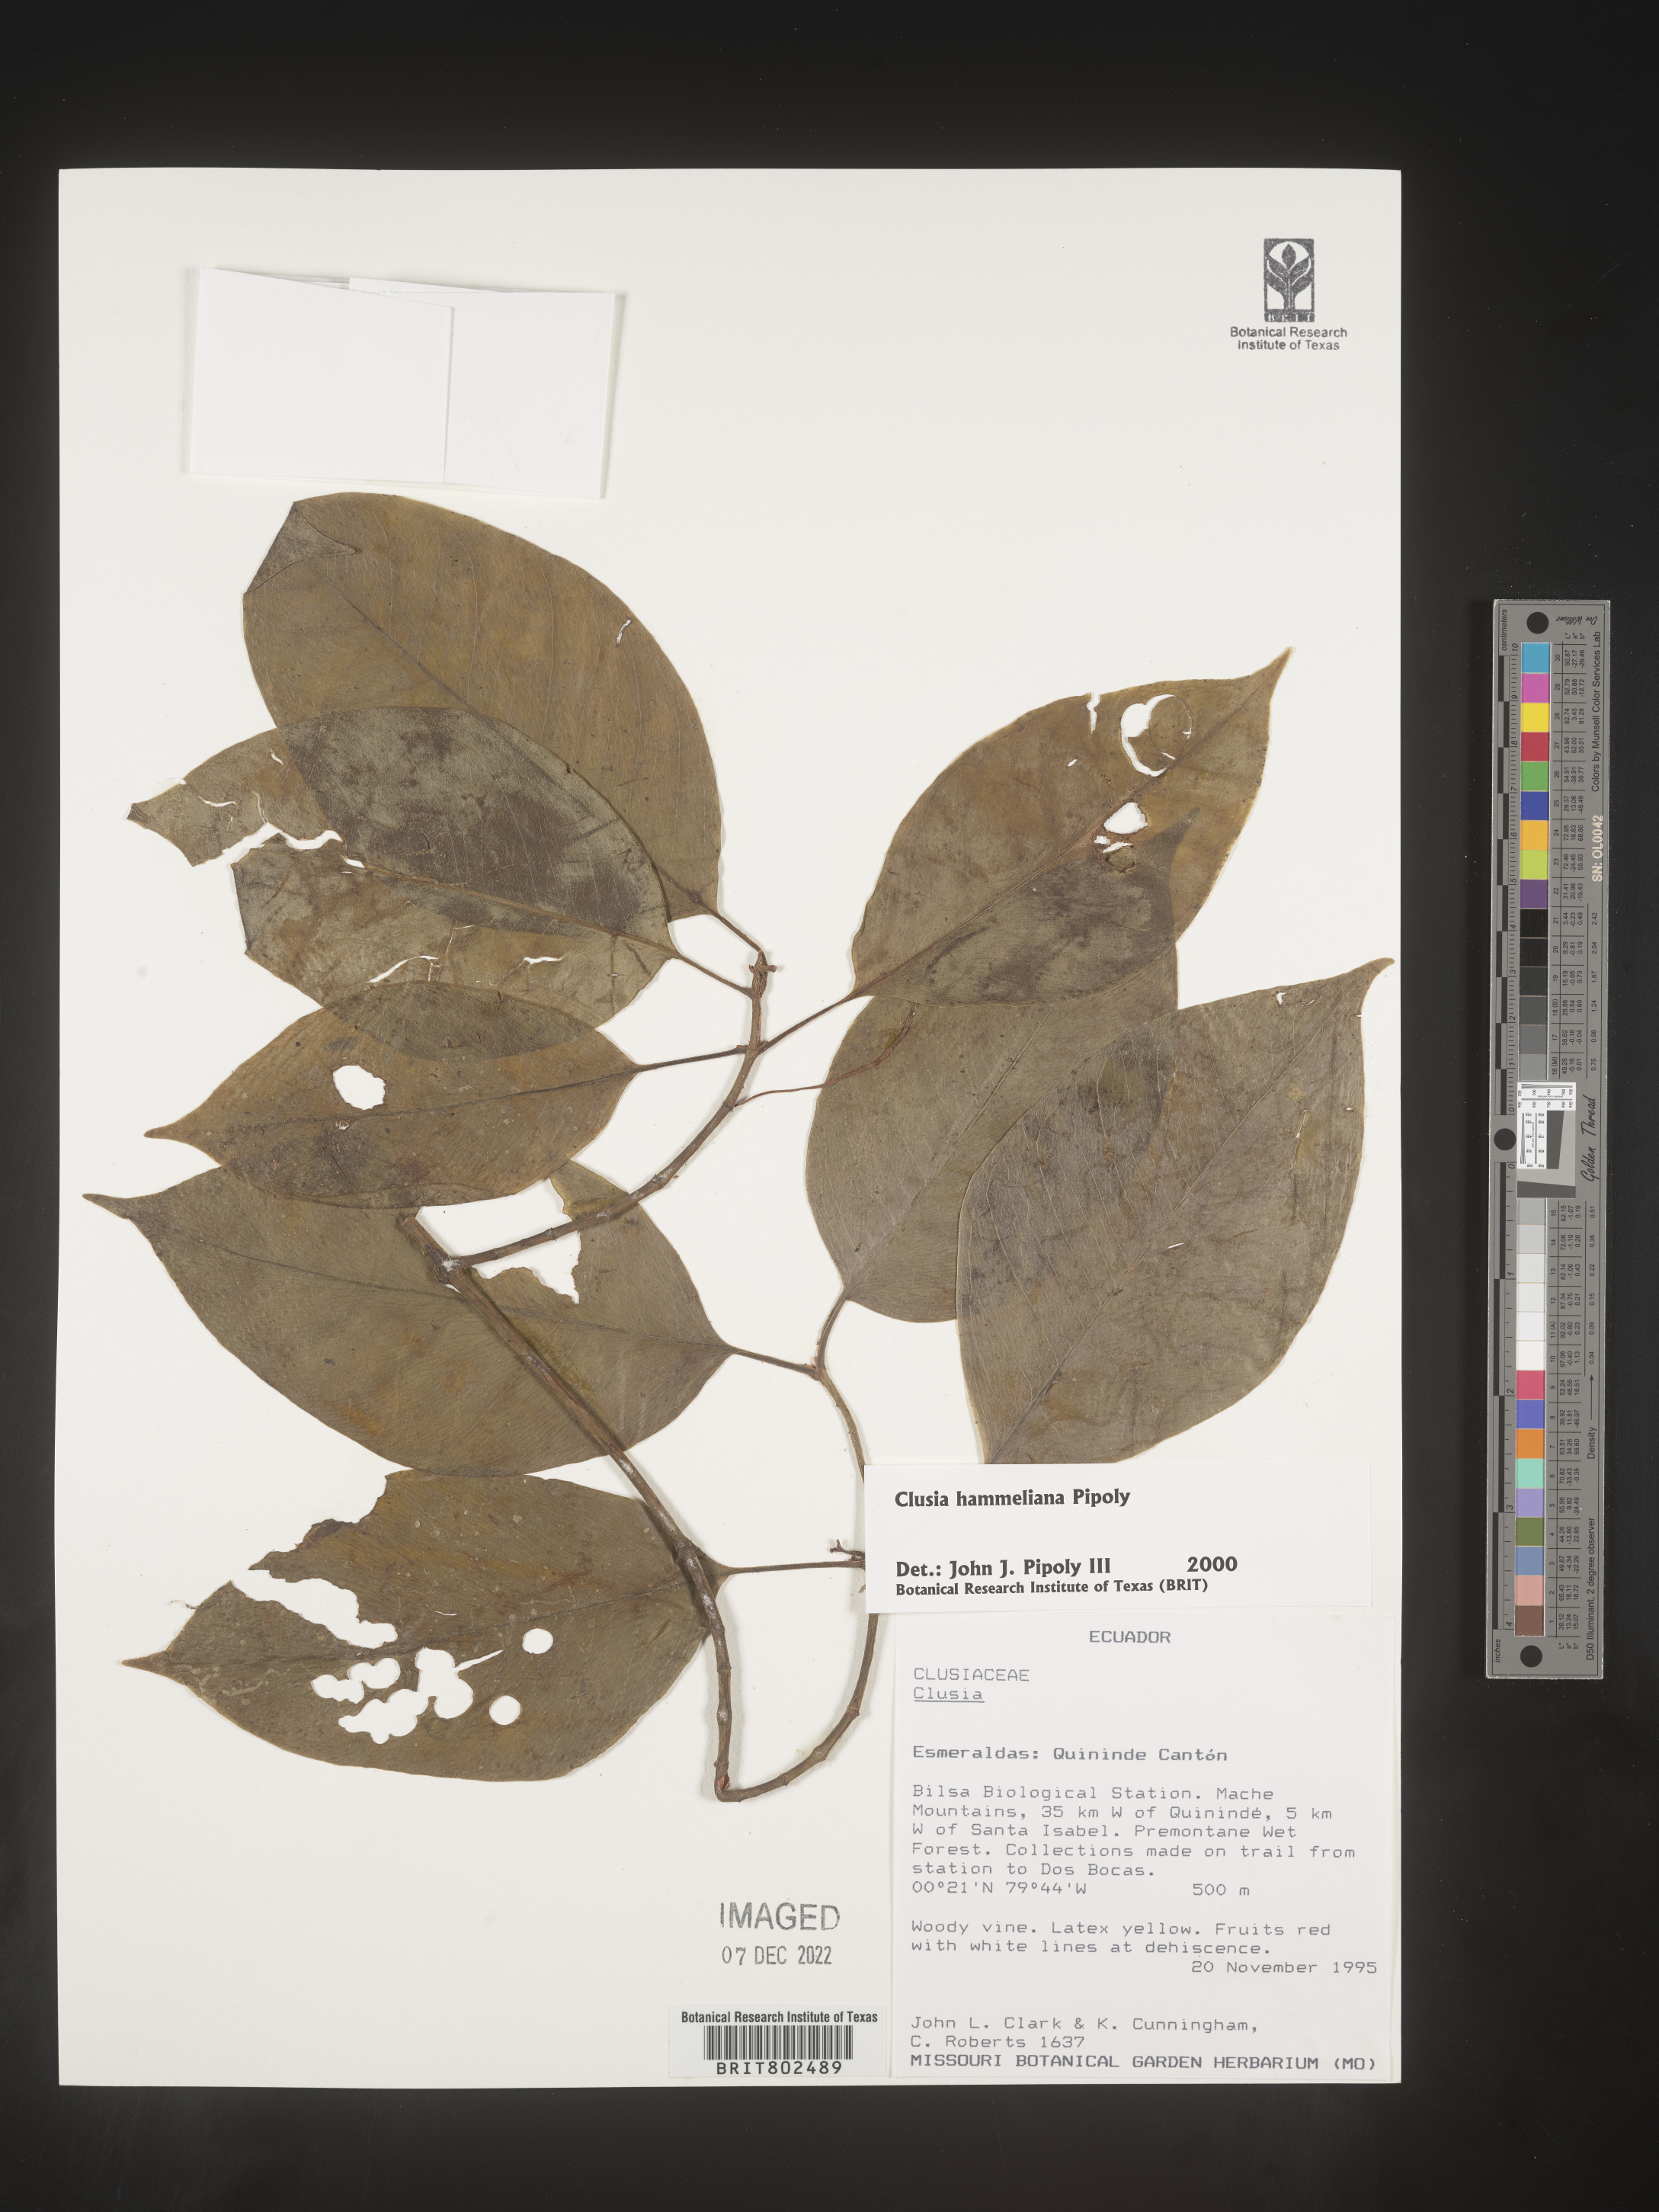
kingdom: Plantae
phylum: Tracheophyta
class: Magnoliopsida
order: Malpighiales
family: Clusiaceae
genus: Clusia
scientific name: Clusia hammeliana
